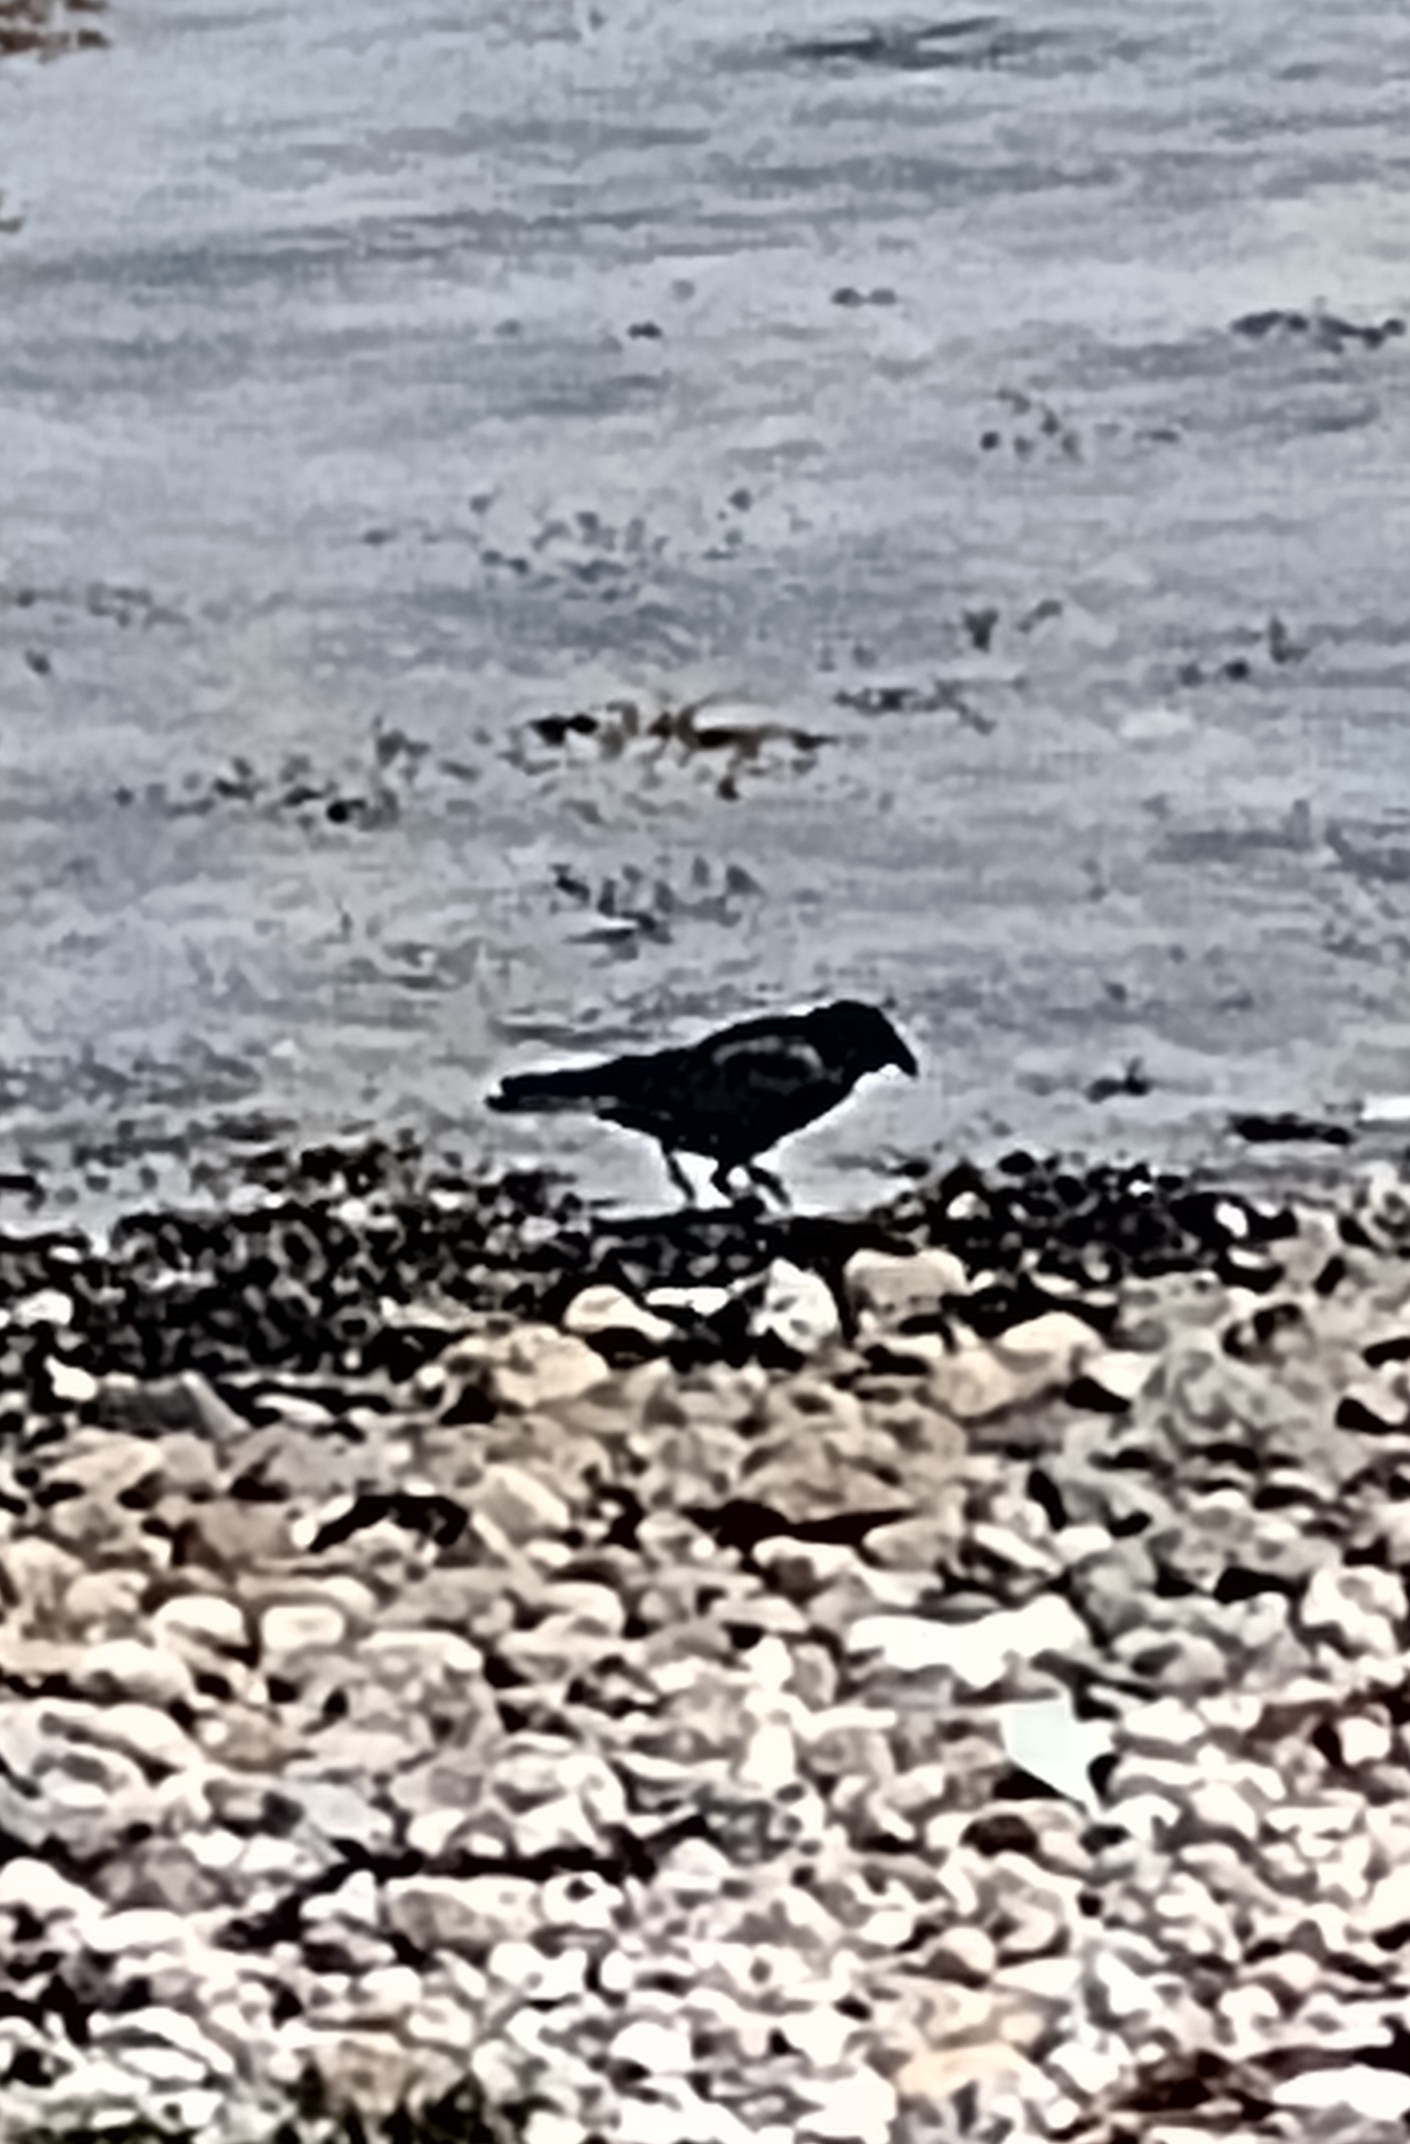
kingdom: Animalia
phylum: Chordata
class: Aves
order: Passeriformes
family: Corvidae
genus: Corvus
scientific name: Corvus
